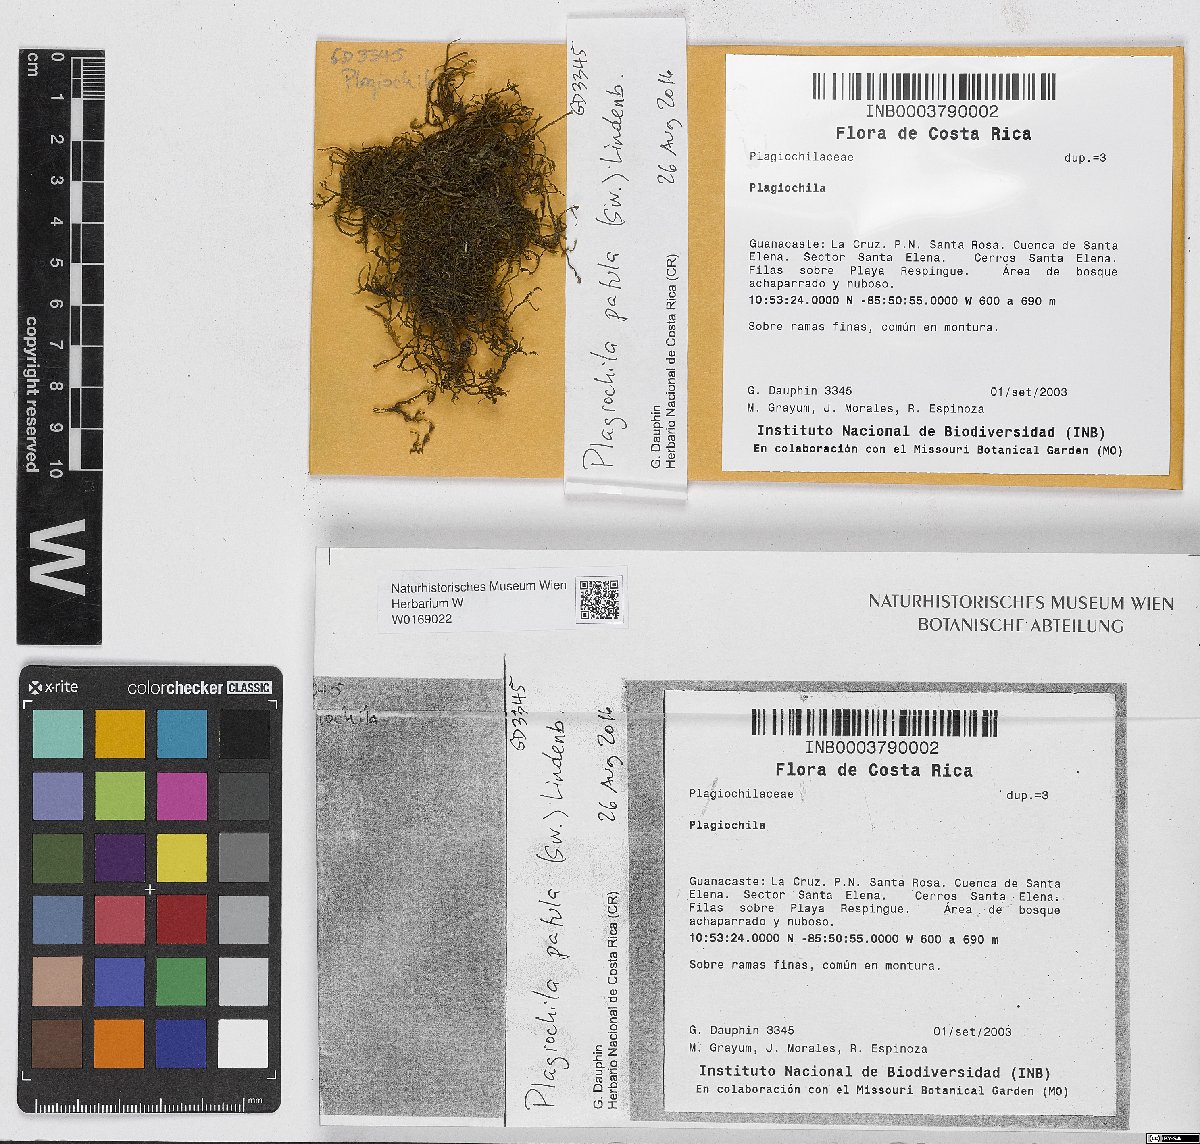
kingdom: Plantae
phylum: Marchantiophyta
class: Jungermanniopsida
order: Jungermanniales
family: Plagiochilaceae
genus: Plagiochila
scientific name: Plagiochila patula
